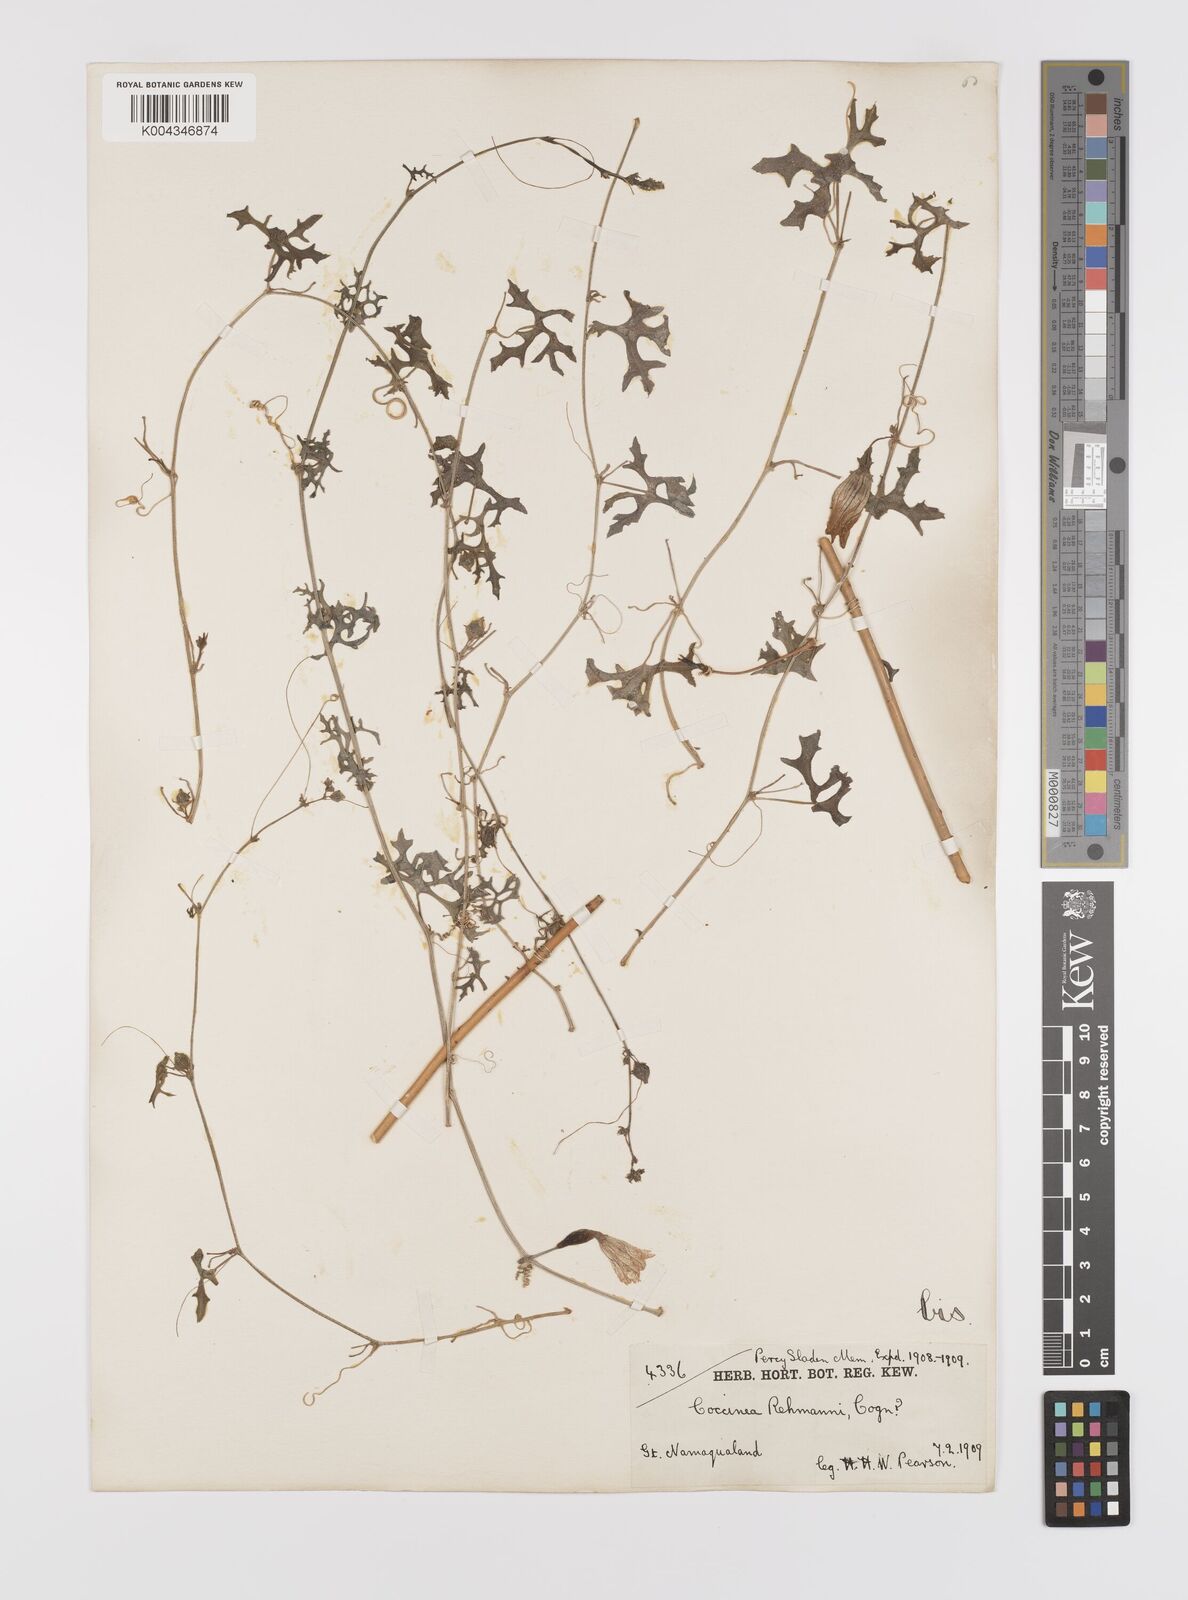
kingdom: Plantae
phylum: Tracheophyta
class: Magnoliopsida
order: Cucurbitales
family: Cucurbitaceae
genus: Coccinia
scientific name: Coccinia rehmannii
